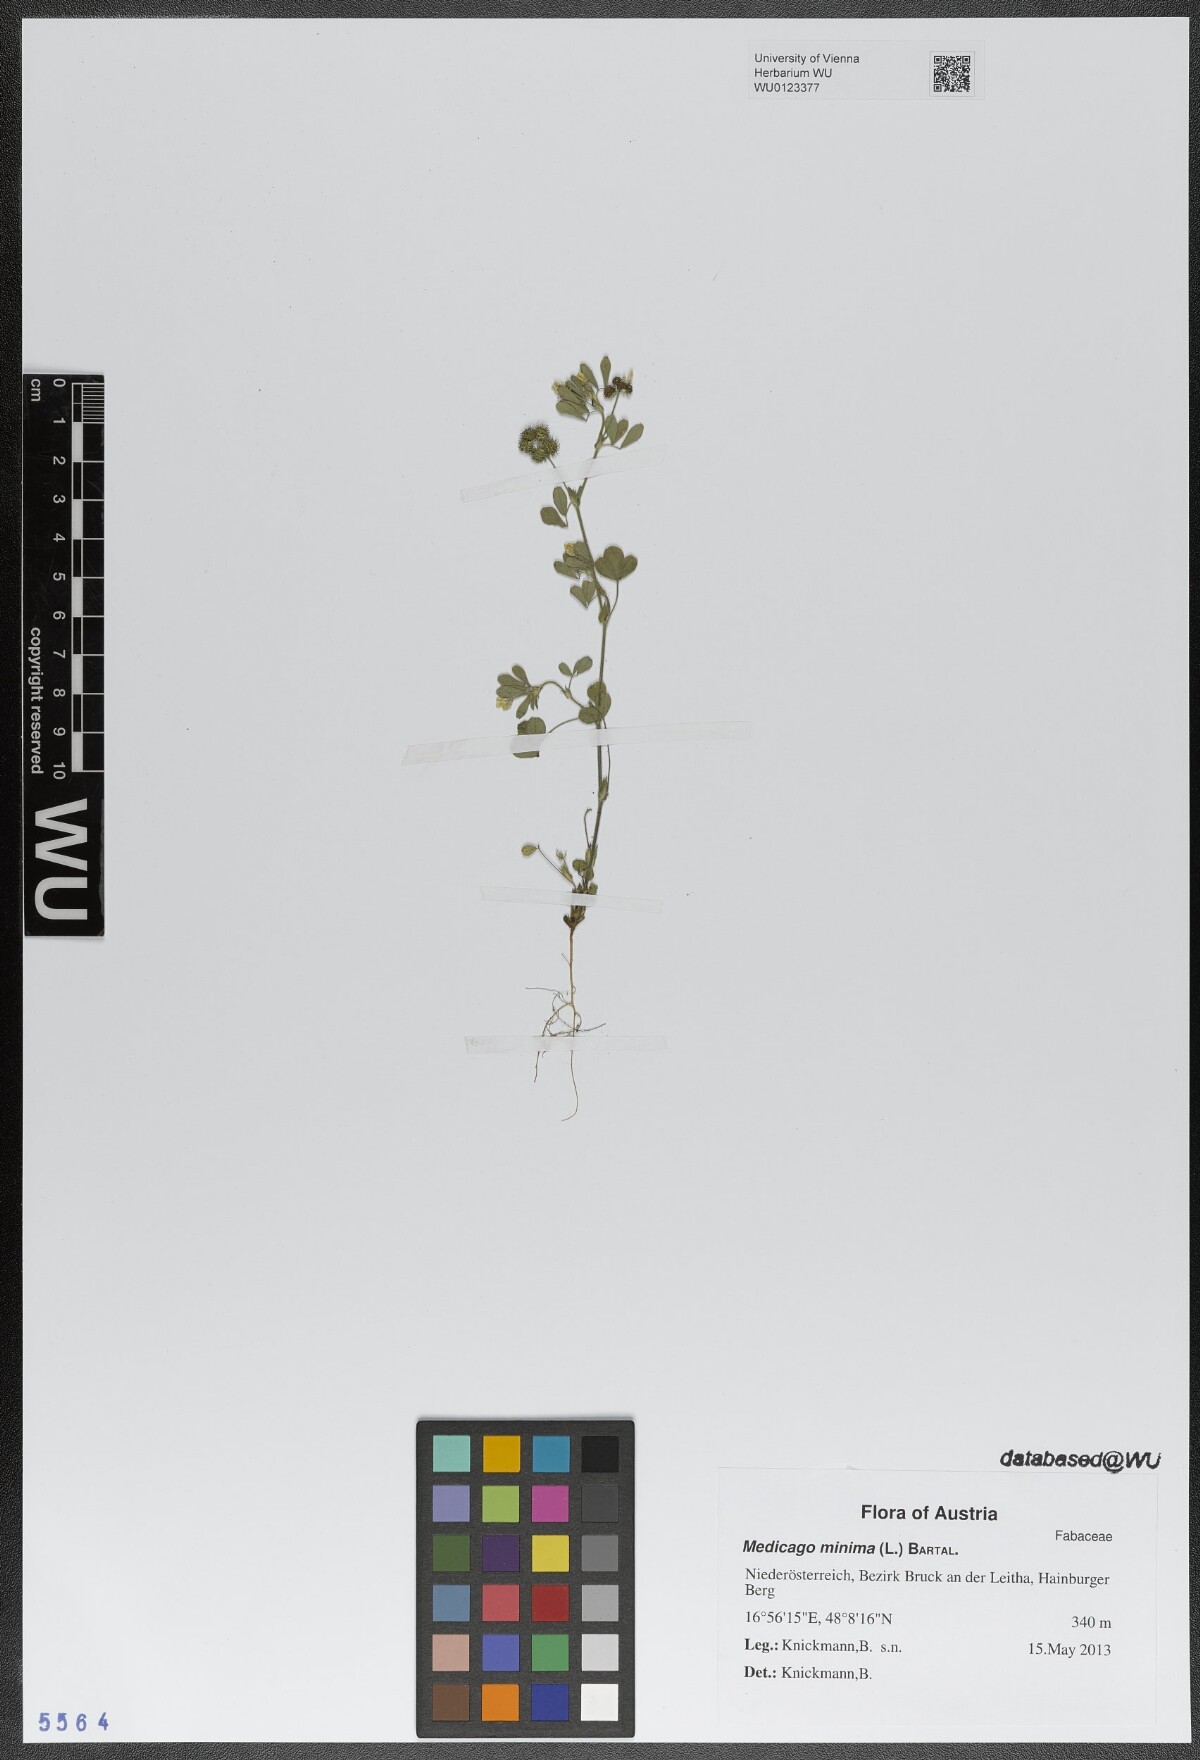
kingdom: Plantae
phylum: Tracheophyta
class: Magnoliopsida
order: Fabales
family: Fabaceae
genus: Medicago
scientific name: Medicago minima
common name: Little bur-clover
